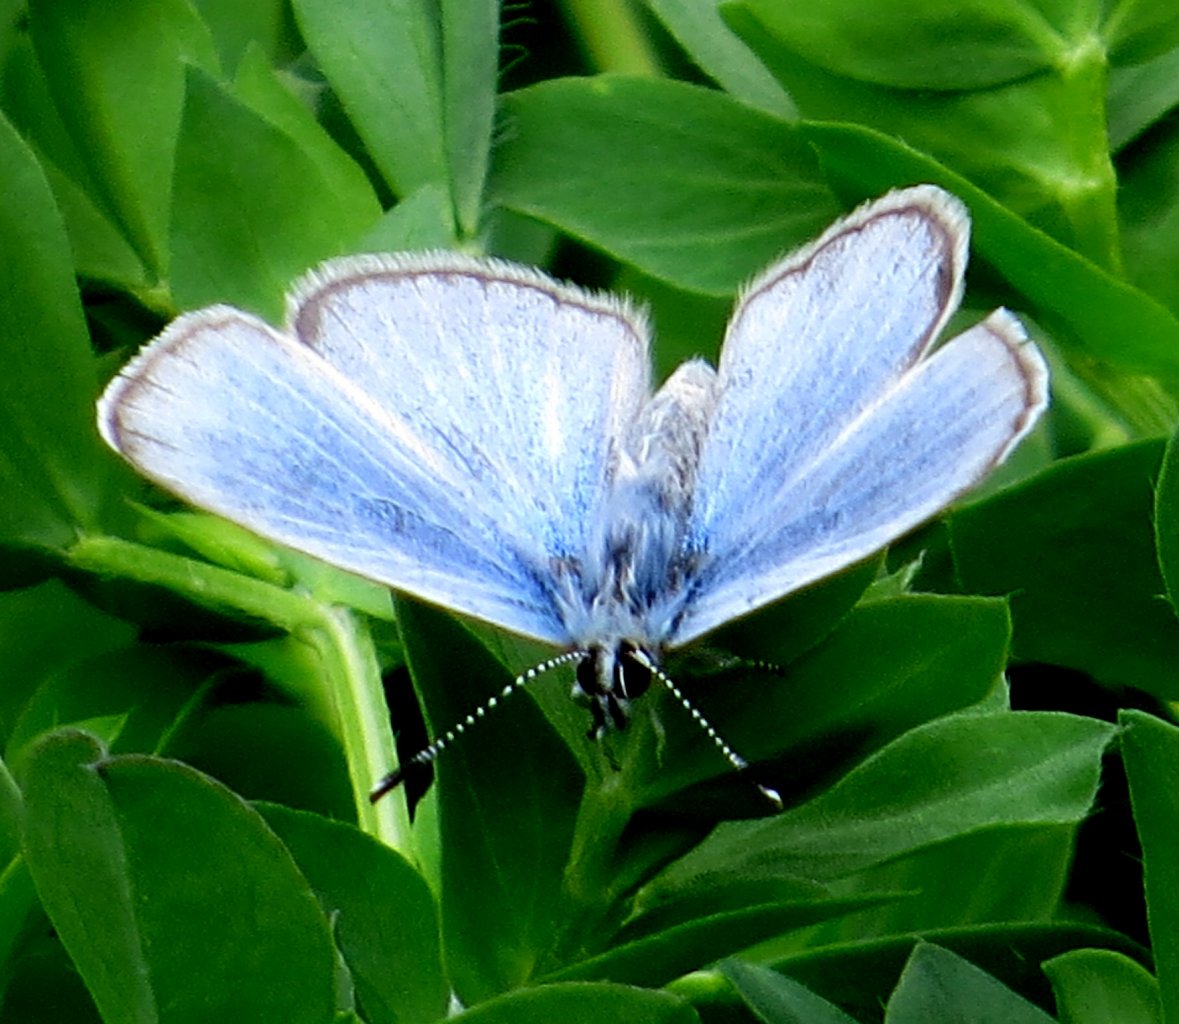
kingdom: Animalia
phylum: Arthropoda
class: Insecta
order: Lepidoptera
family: Lycaenidae
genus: Glaucopsyche
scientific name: Glaucopsyche lygdamus
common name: Silvery Blue
